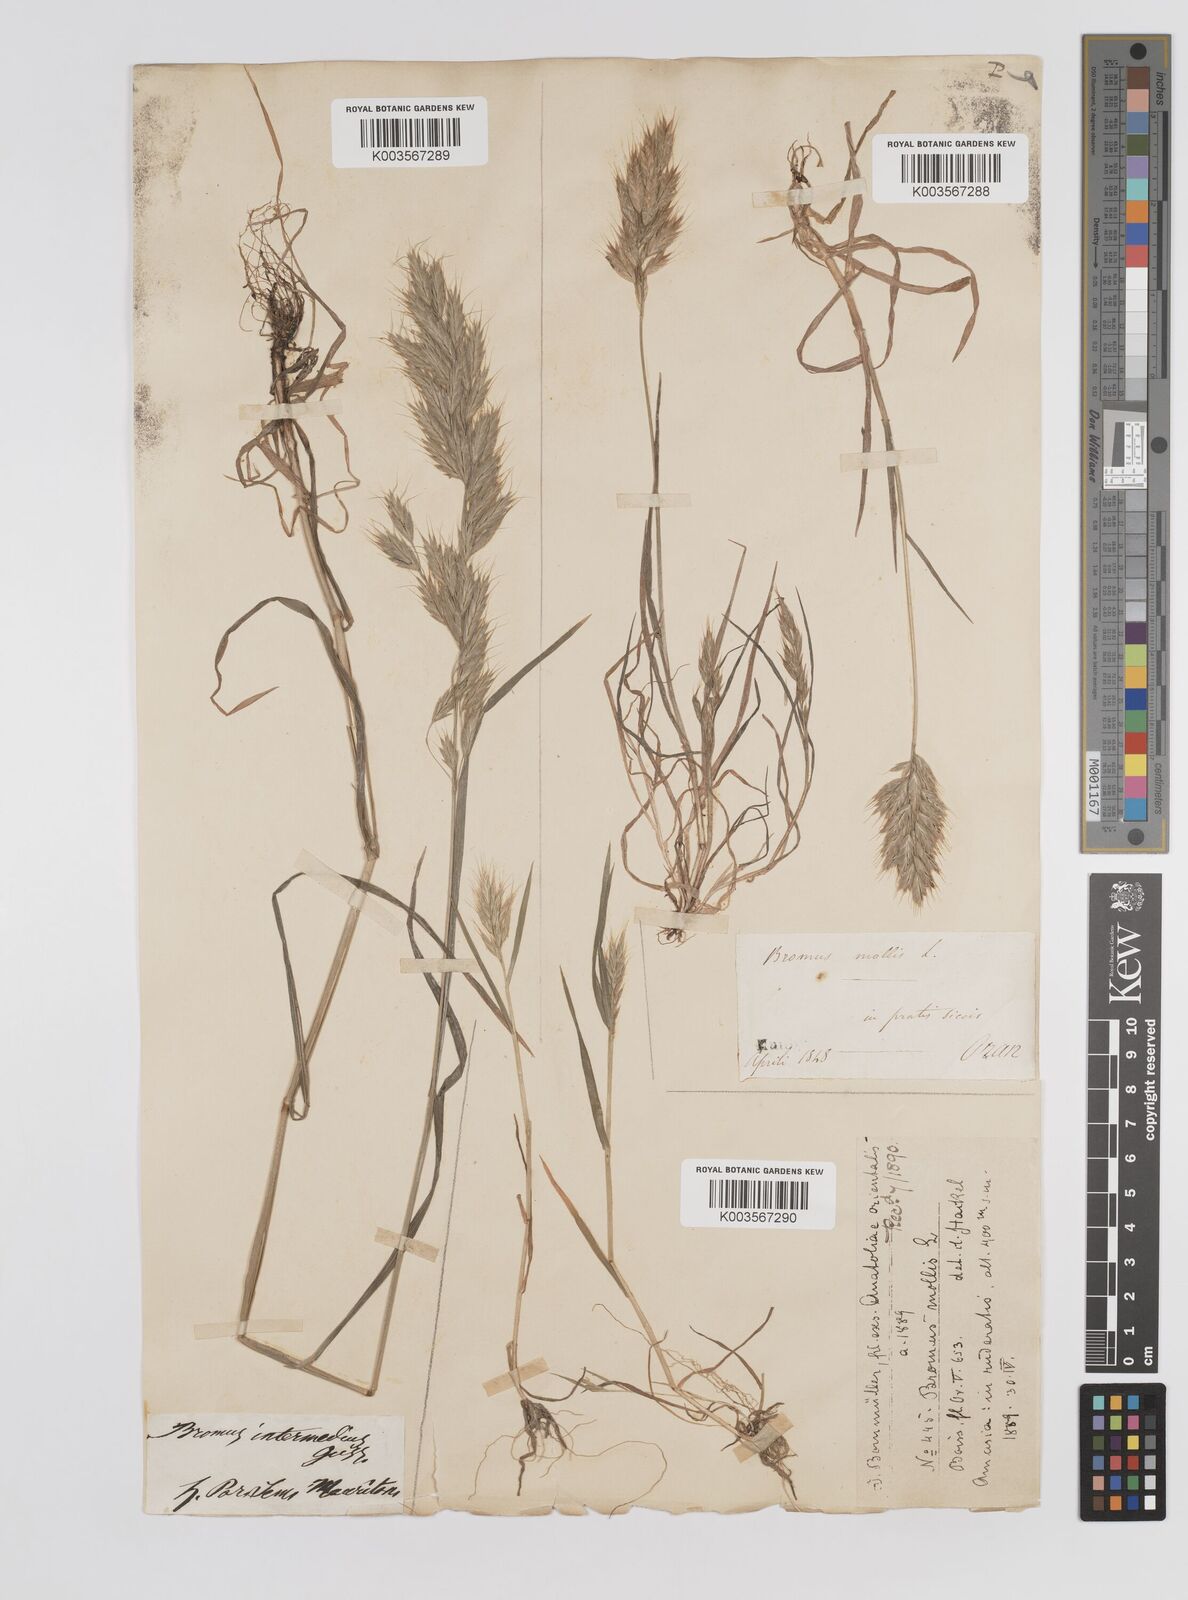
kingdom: Plantae
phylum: Tracheophyta
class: Liliopsida
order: Poales
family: Poaceae
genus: Bromus
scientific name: Bromus hordeaceus
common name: Soft brome
